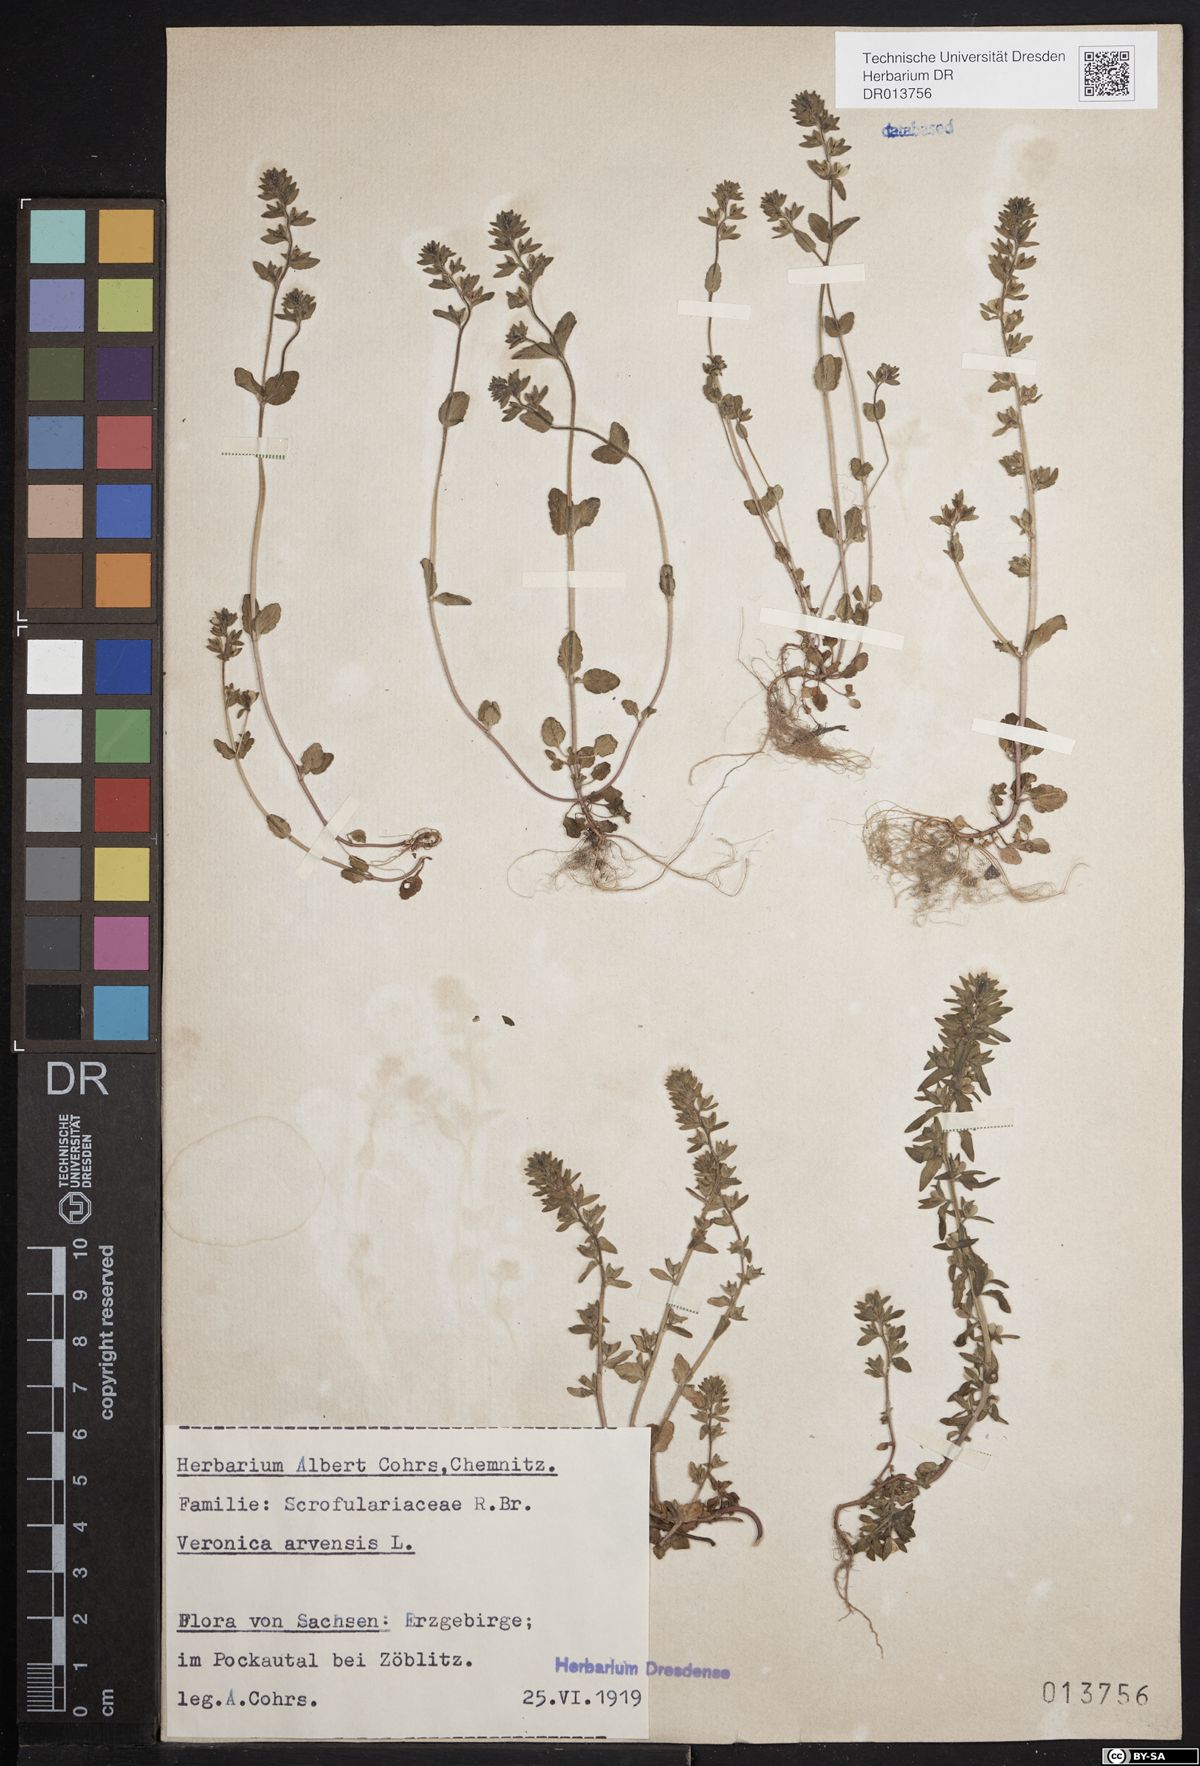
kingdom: Plantae
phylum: Tracheophyta
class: Magnoliopsida
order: Lamiales
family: Plantaginaceae
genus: Veronica
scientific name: Veronica arvensis
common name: Corn speedwell
